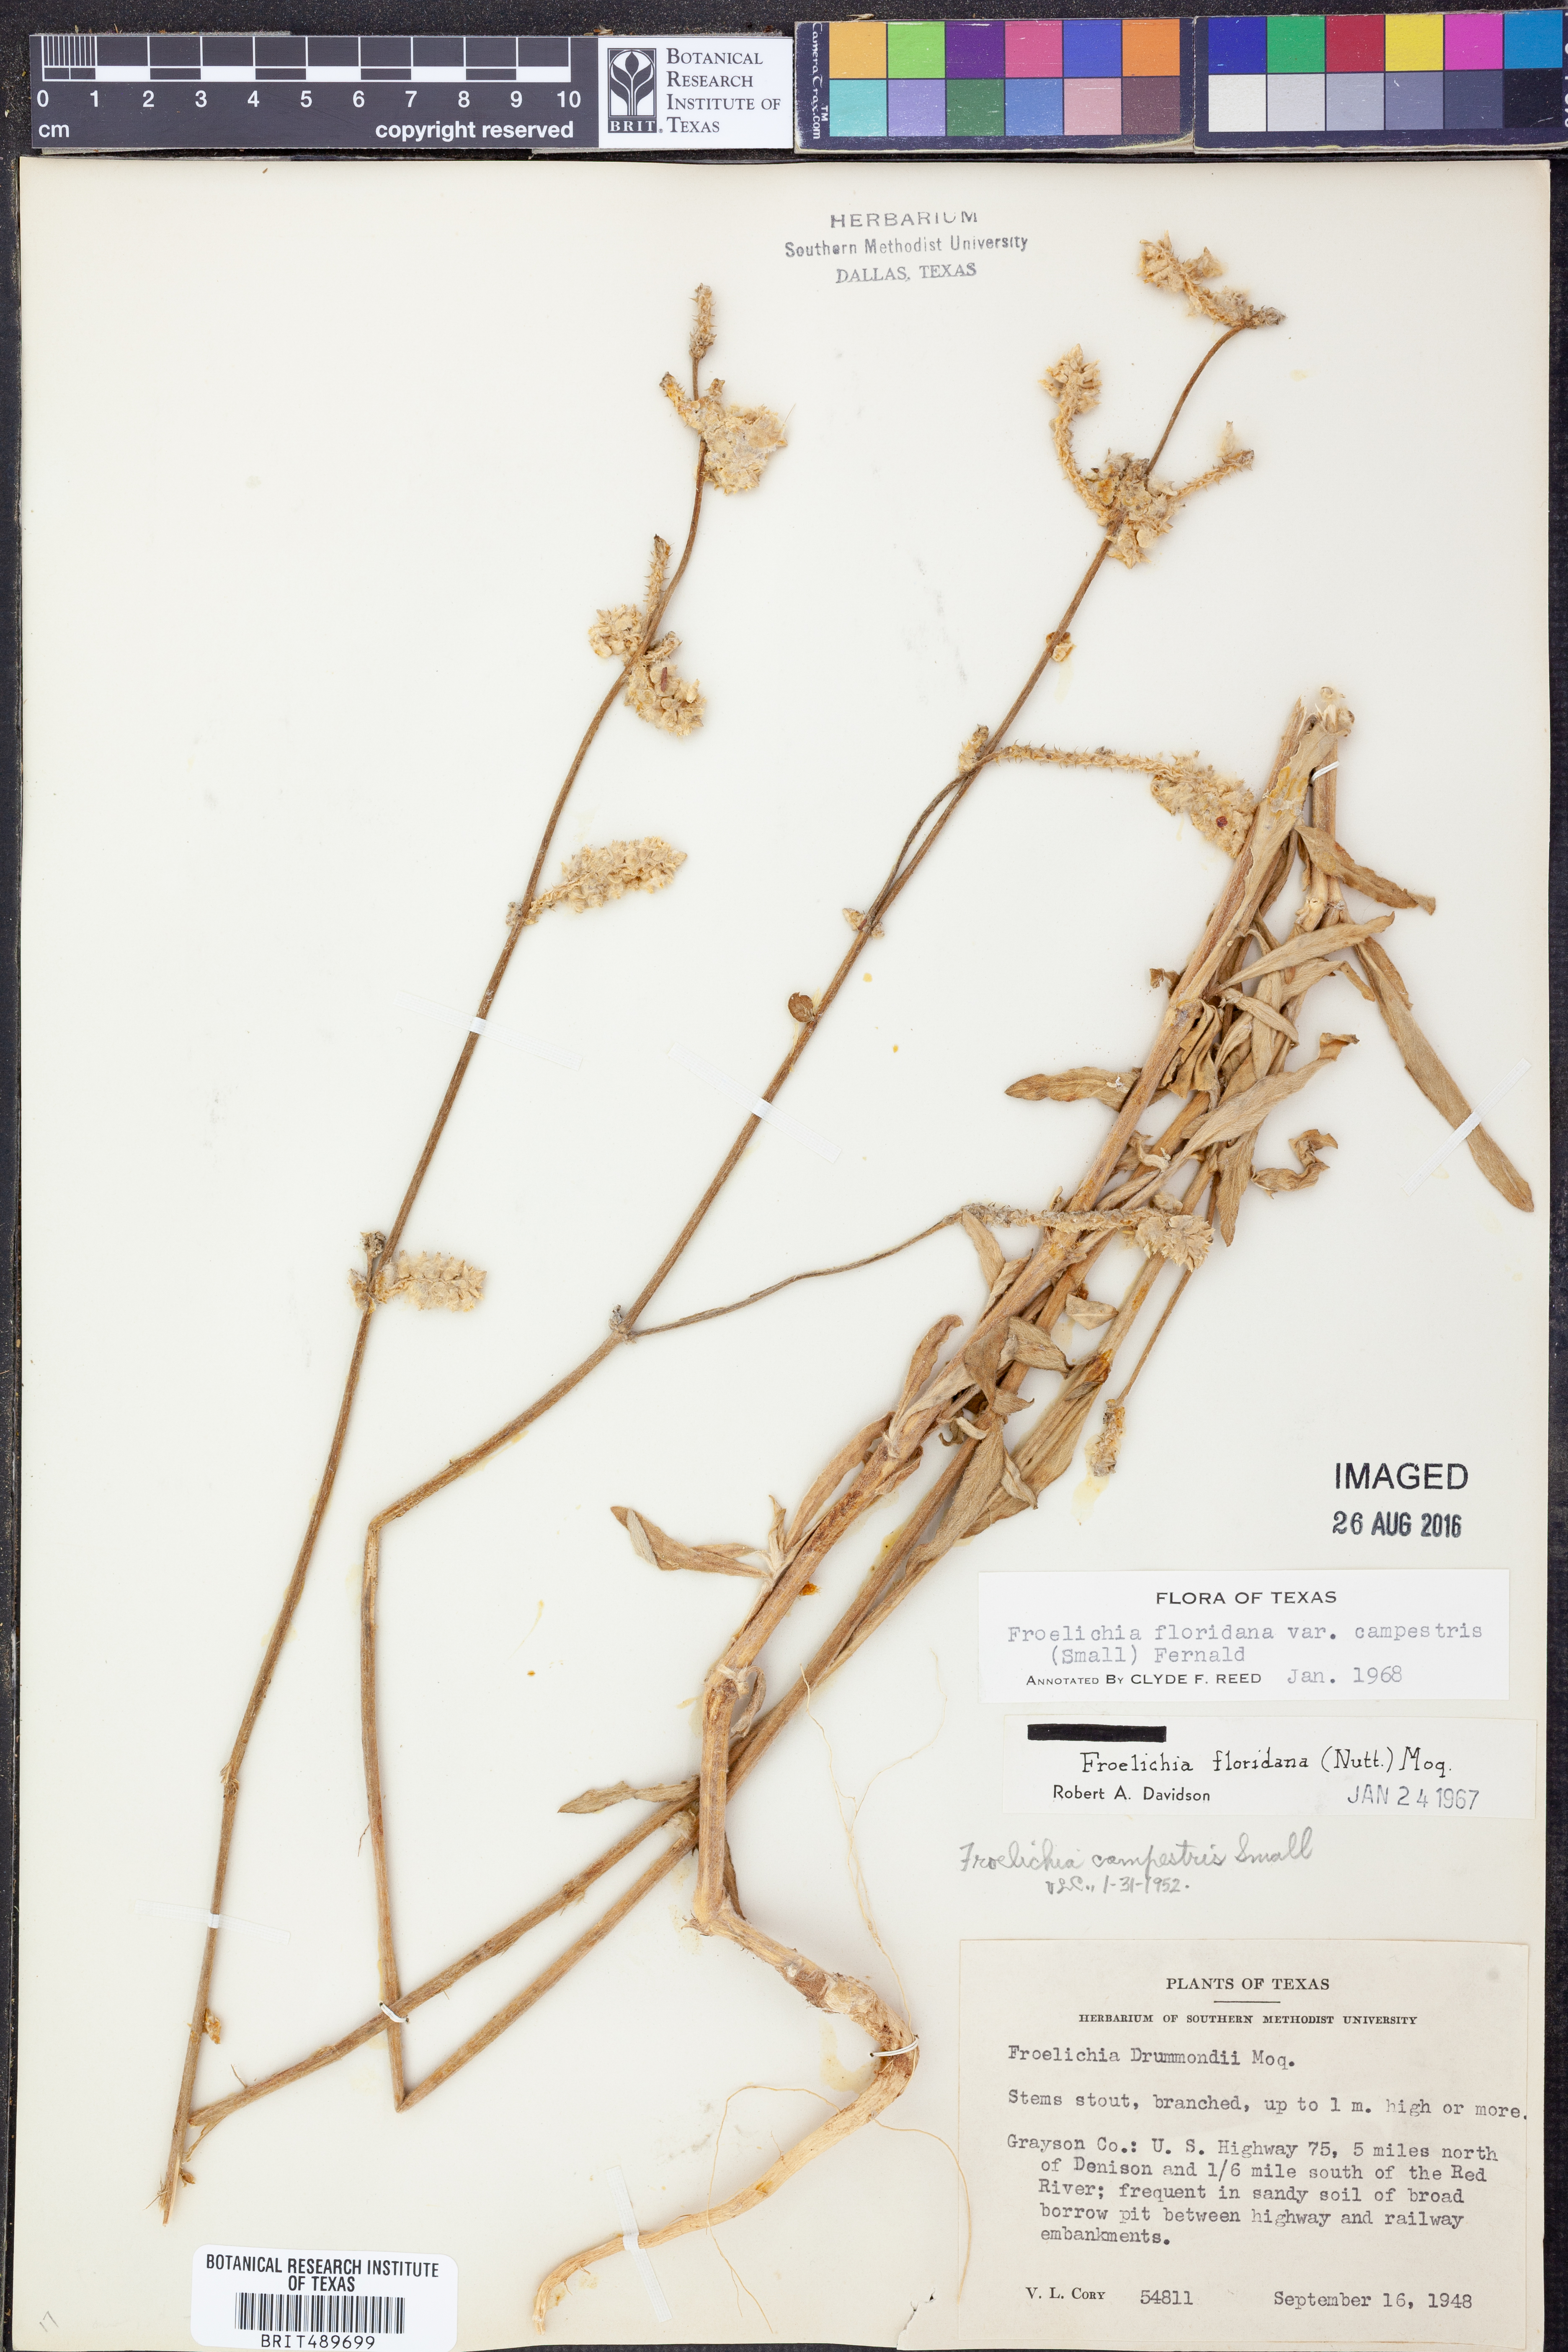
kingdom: Plantae
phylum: Tracheophyta
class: Magnoliopsida
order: Caryophyllales
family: Amaranthaceae
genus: Froelichia
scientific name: Froelichia floridana
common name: Florida snake-cotton
